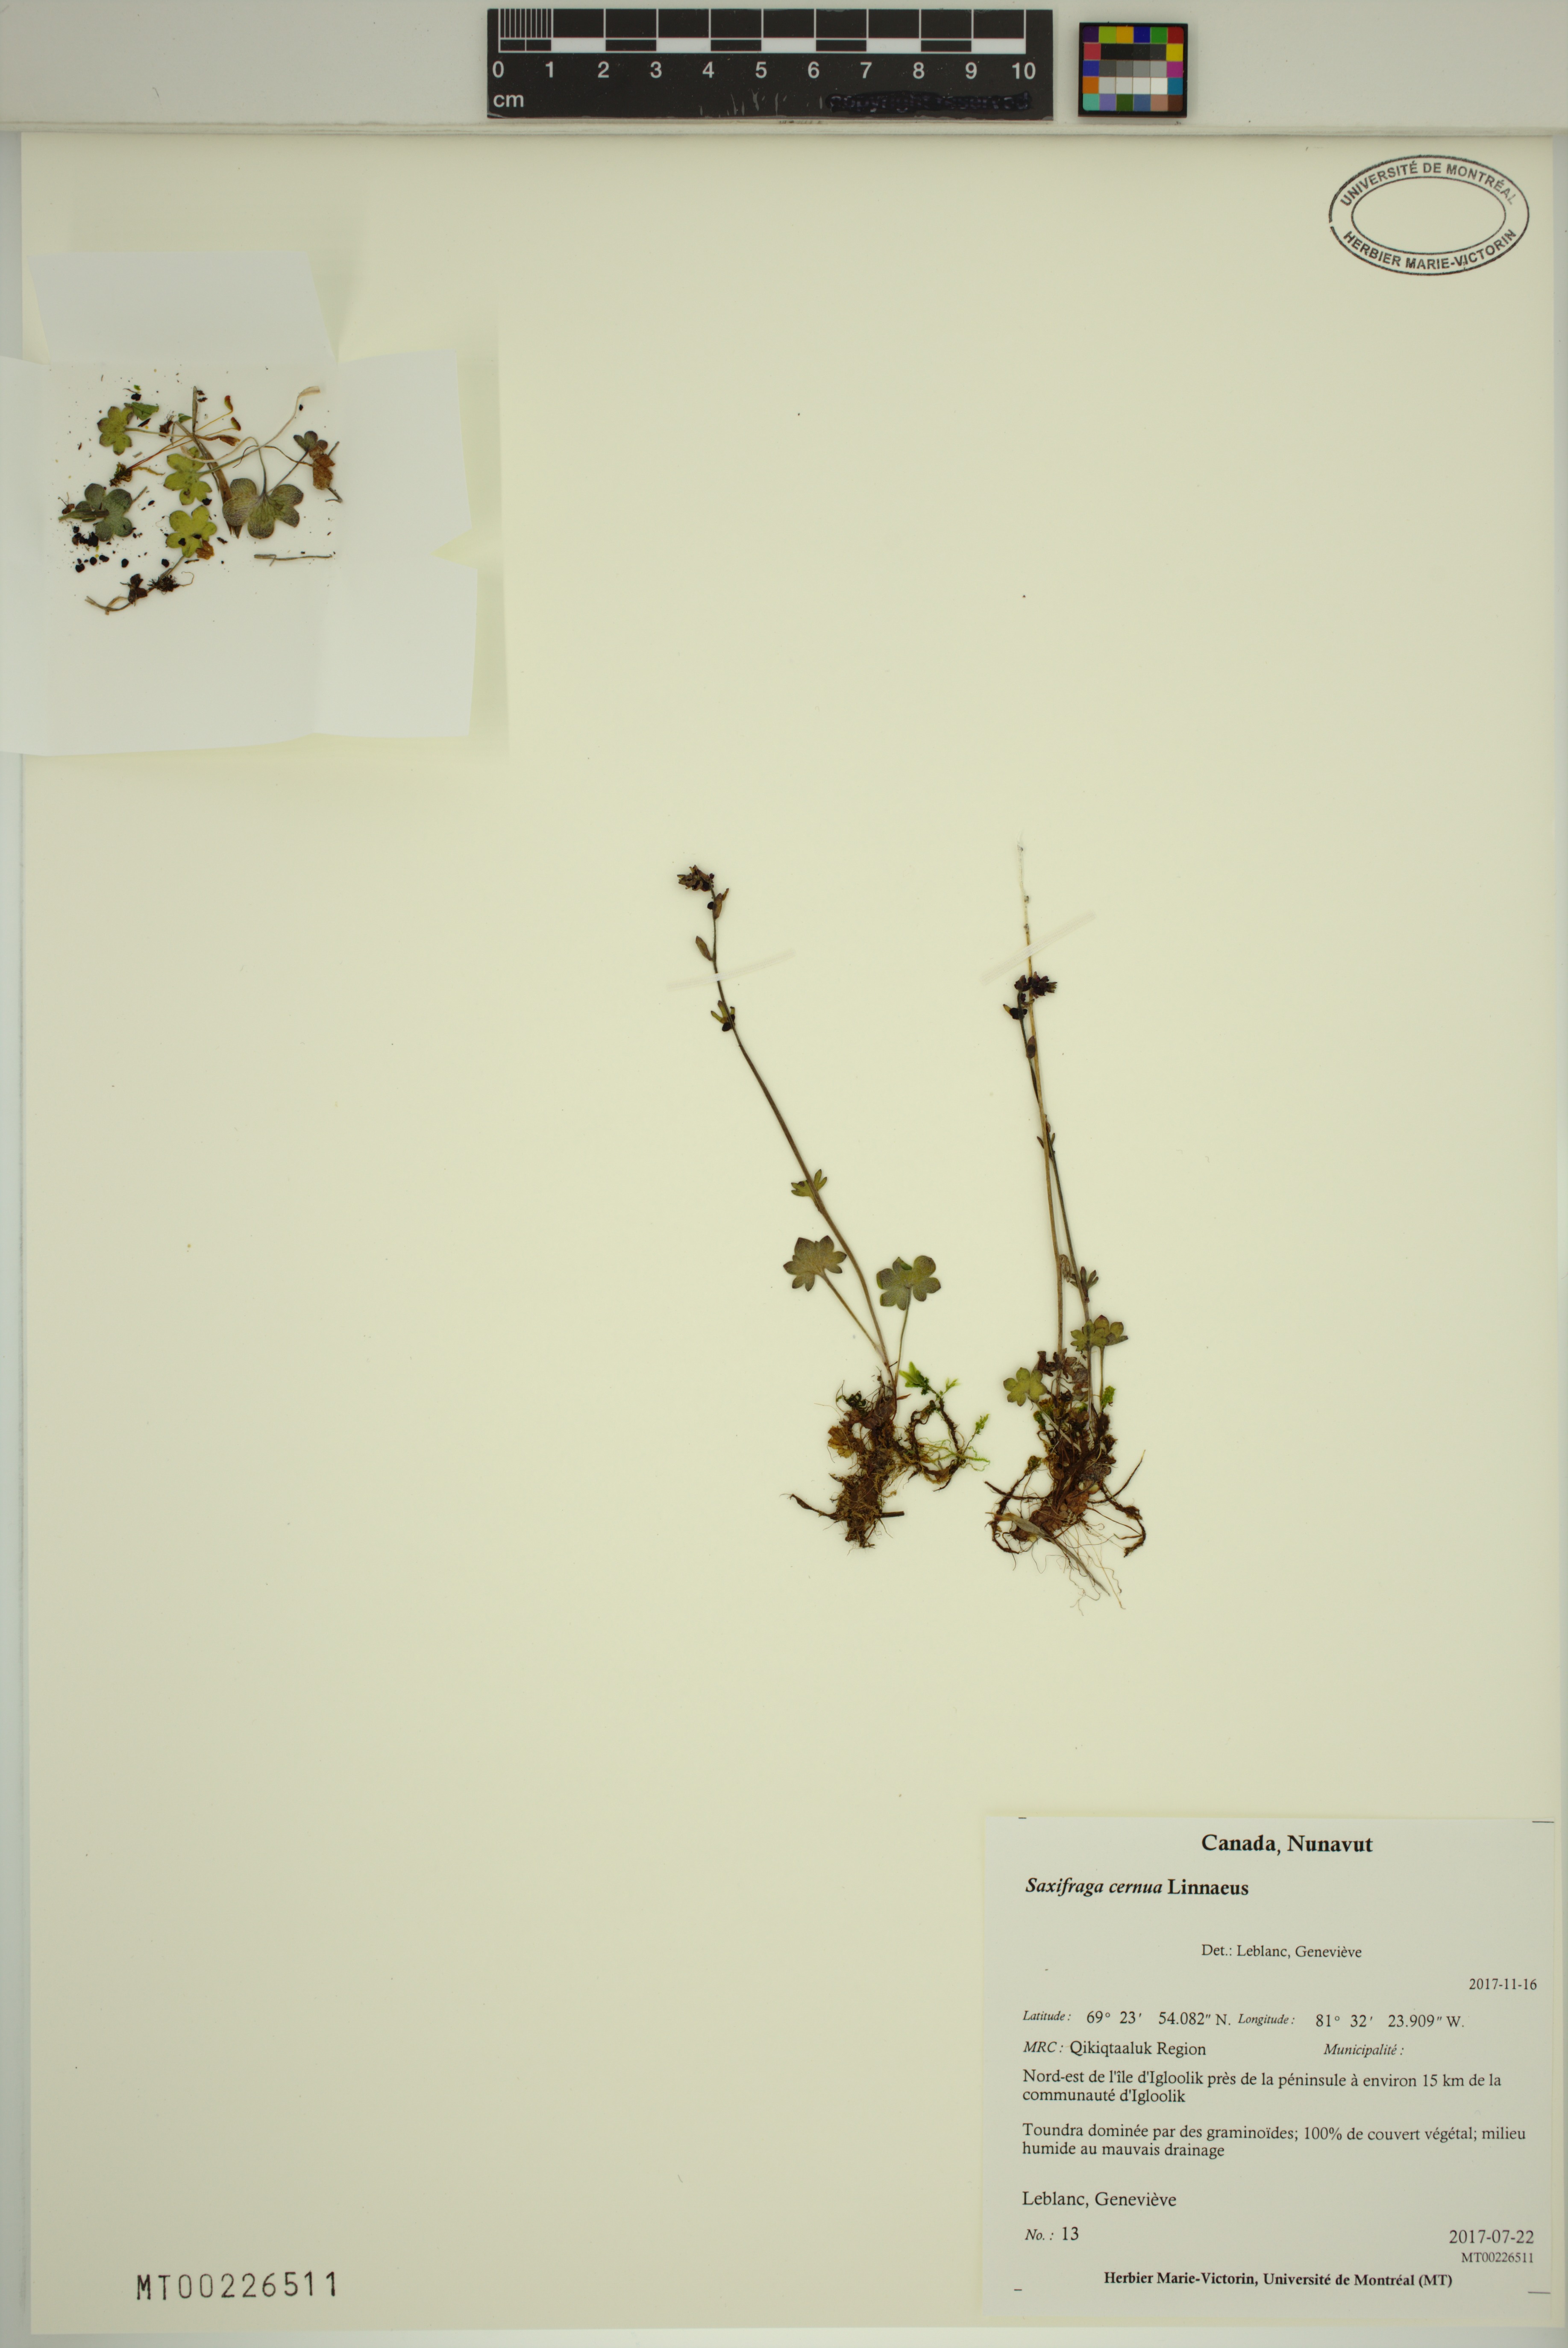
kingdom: Plantae
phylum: Tracheophyta
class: Magnoliopsida
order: Saxifragales
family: Saxifragaceae
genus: Saxifraga
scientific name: Saxifraga cernua
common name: Drooping saxifrage
